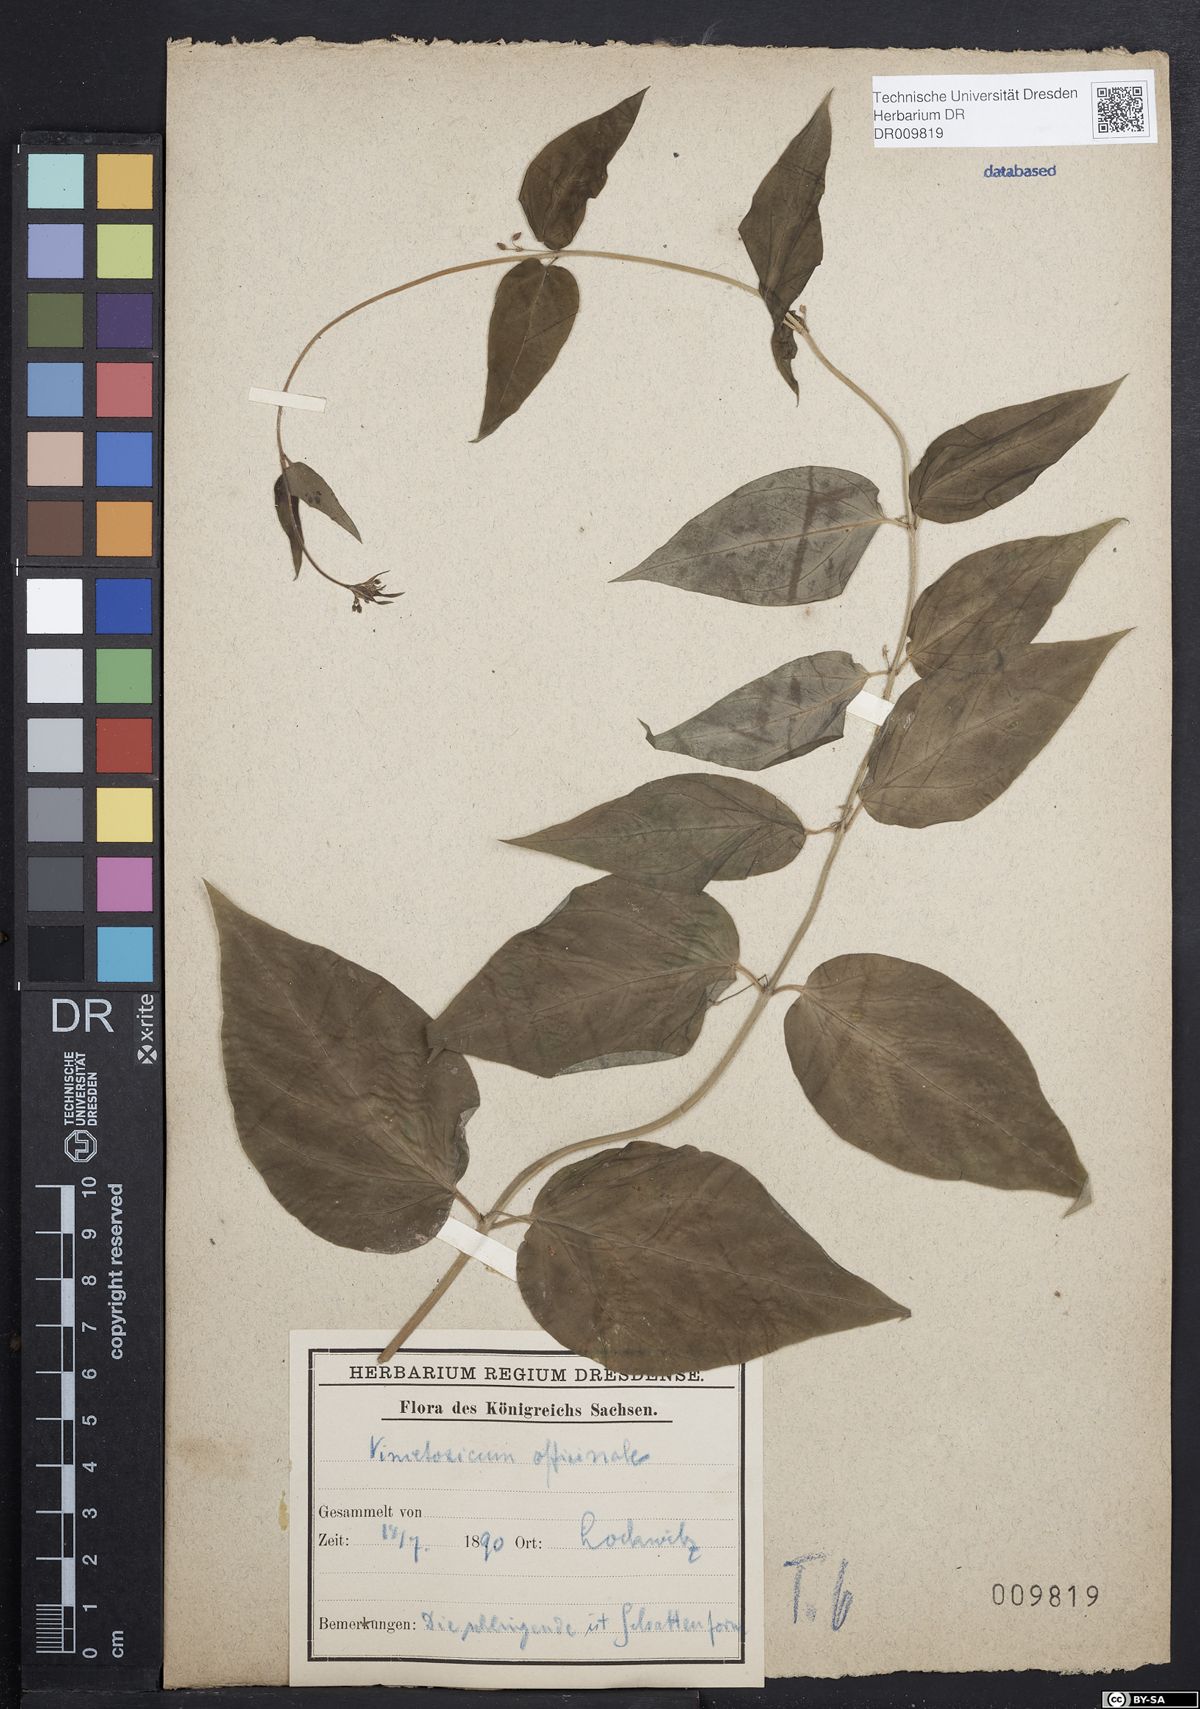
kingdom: Plantae
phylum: Tracheophyta
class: Magnoliopsida
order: Gentianales
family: Apocynaceae
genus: Vincetoxicum
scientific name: Vincetoxicum hirundinaria
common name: White swallowwort
